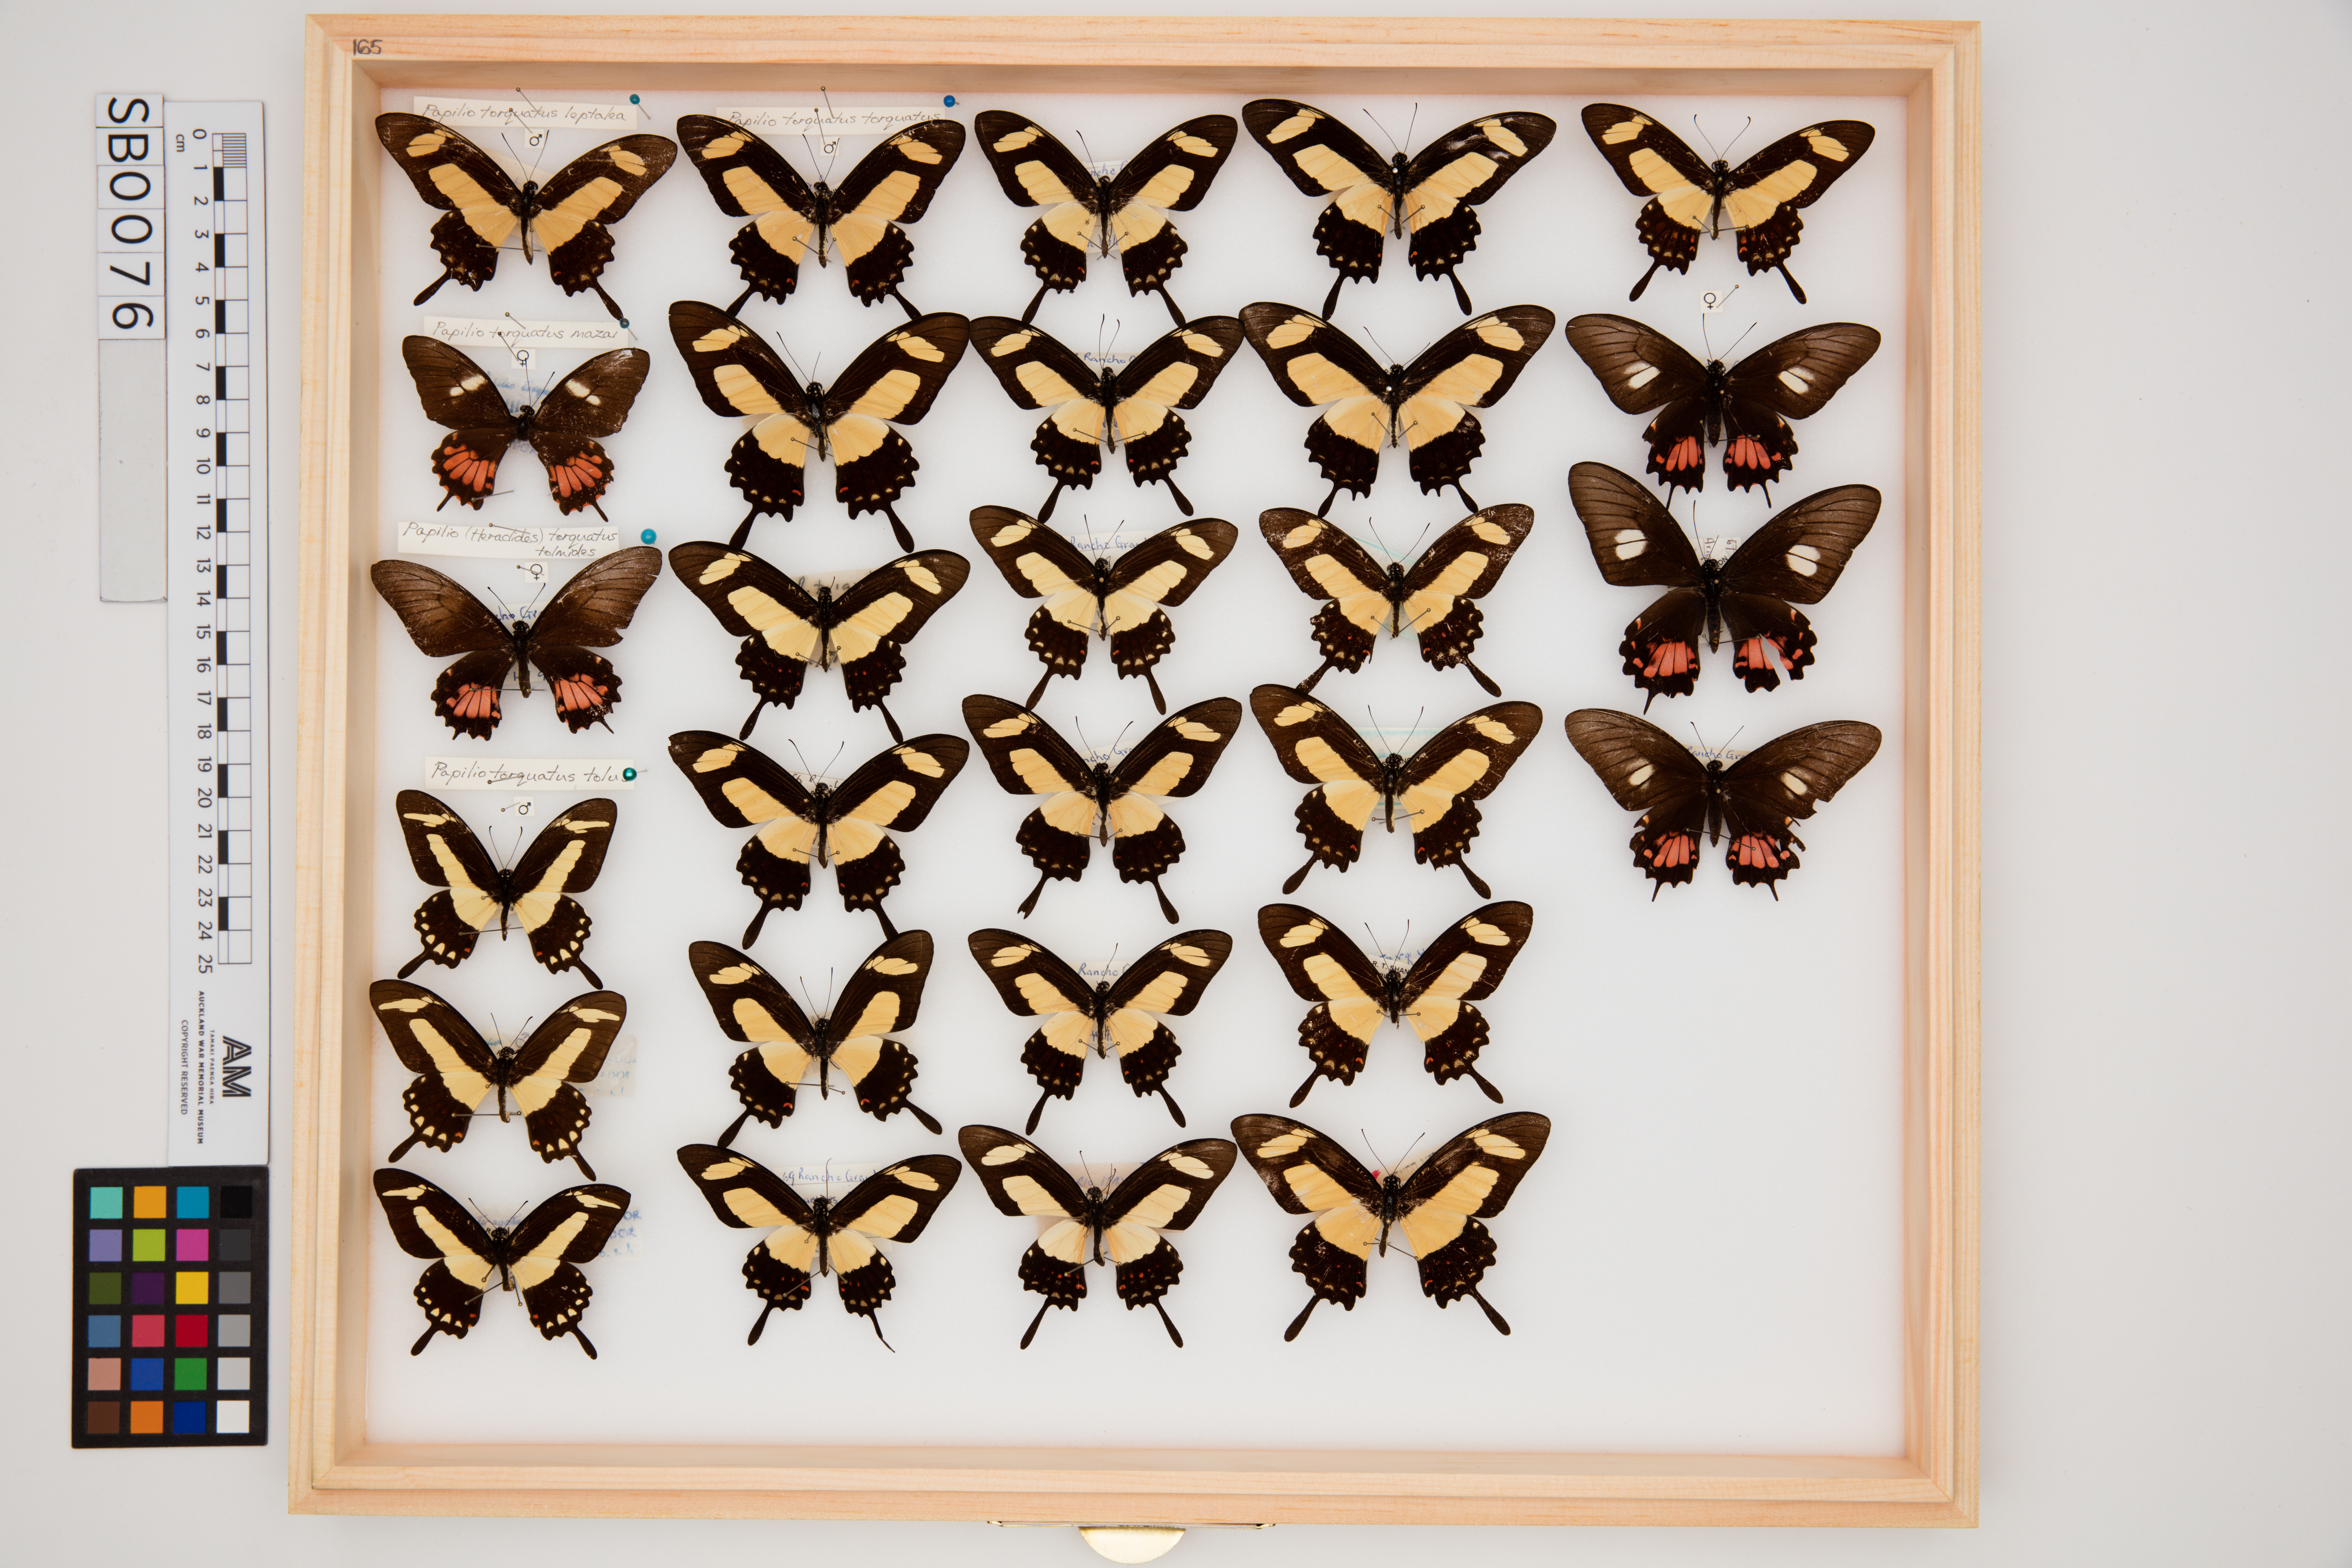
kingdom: Animalia
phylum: Arthropoda
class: Insecta
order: Lepidoptera
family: Papilionidae
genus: Papilio
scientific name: Papilio torquatus
